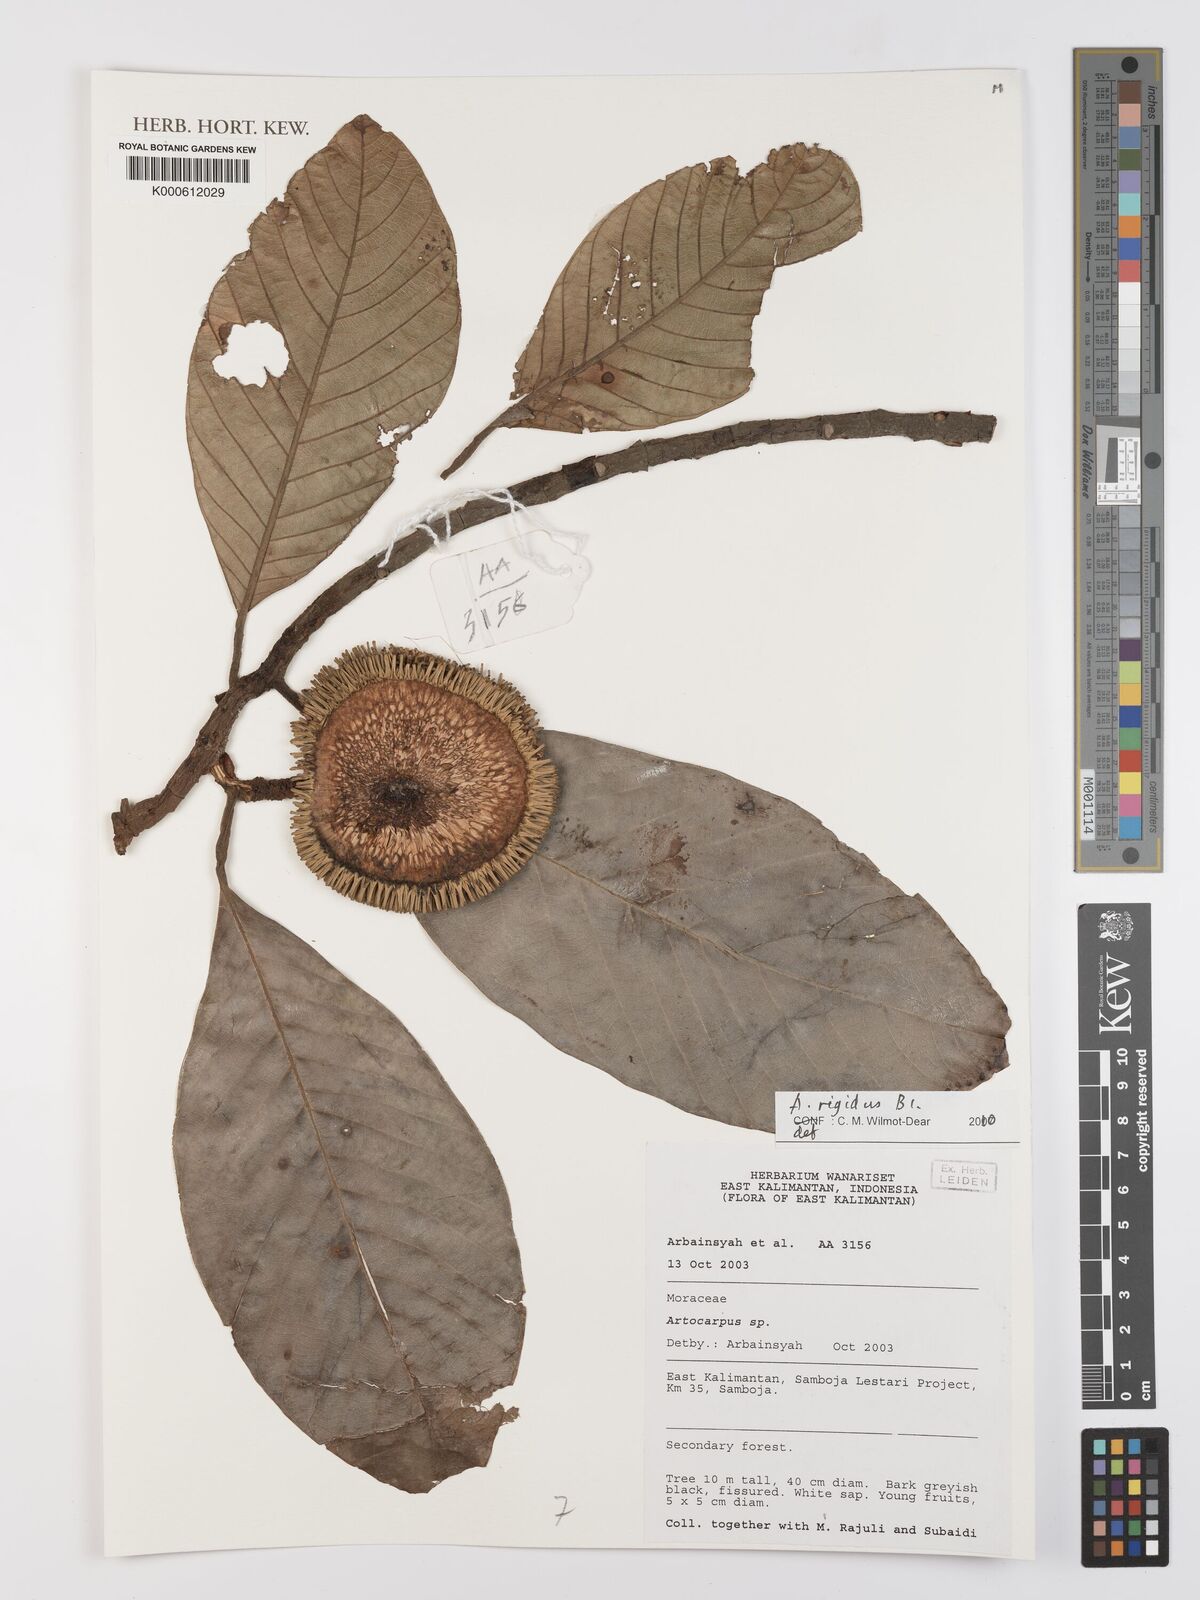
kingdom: Plantae
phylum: Tracheophyta
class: Magnoliopsida
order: Rosales
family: Moraceae
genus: Artocarpus
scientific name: Artocarpus rigidus
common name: Monkey-jack
